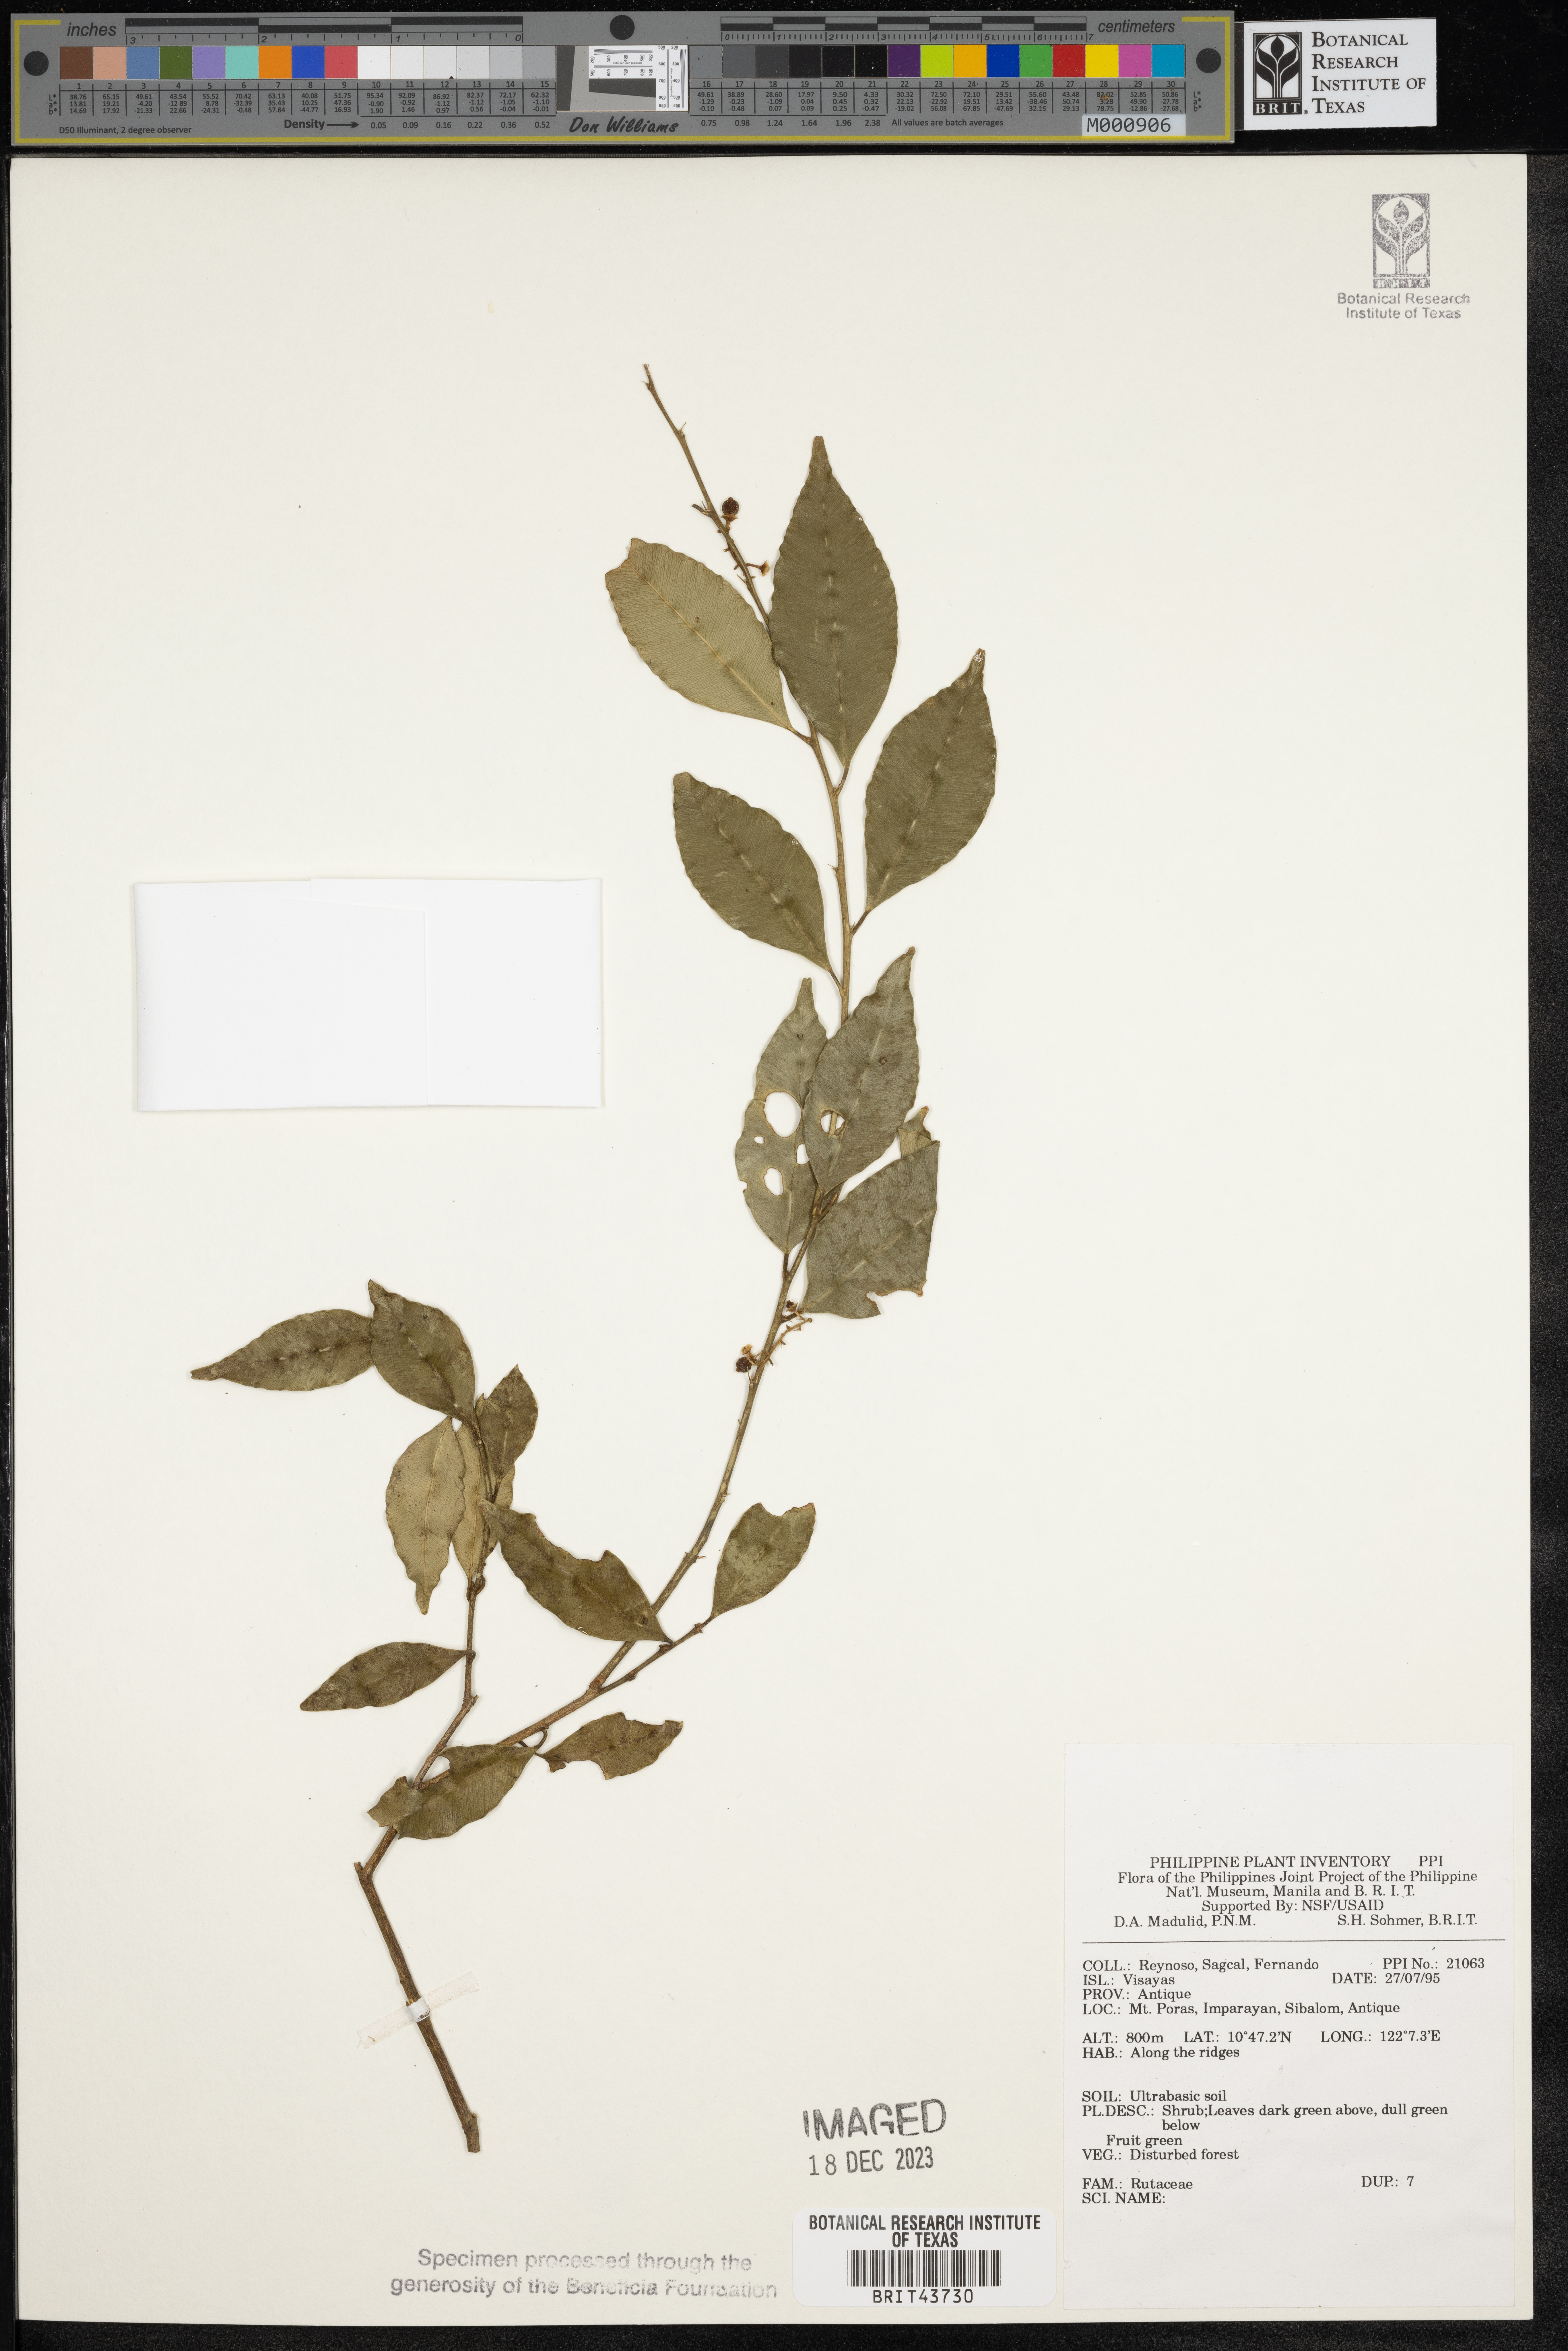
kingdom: Plantae
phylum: Tracheophyta
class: Magnoliopsida
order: Sapindales
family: Rutaceae
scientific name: Rutaceae
